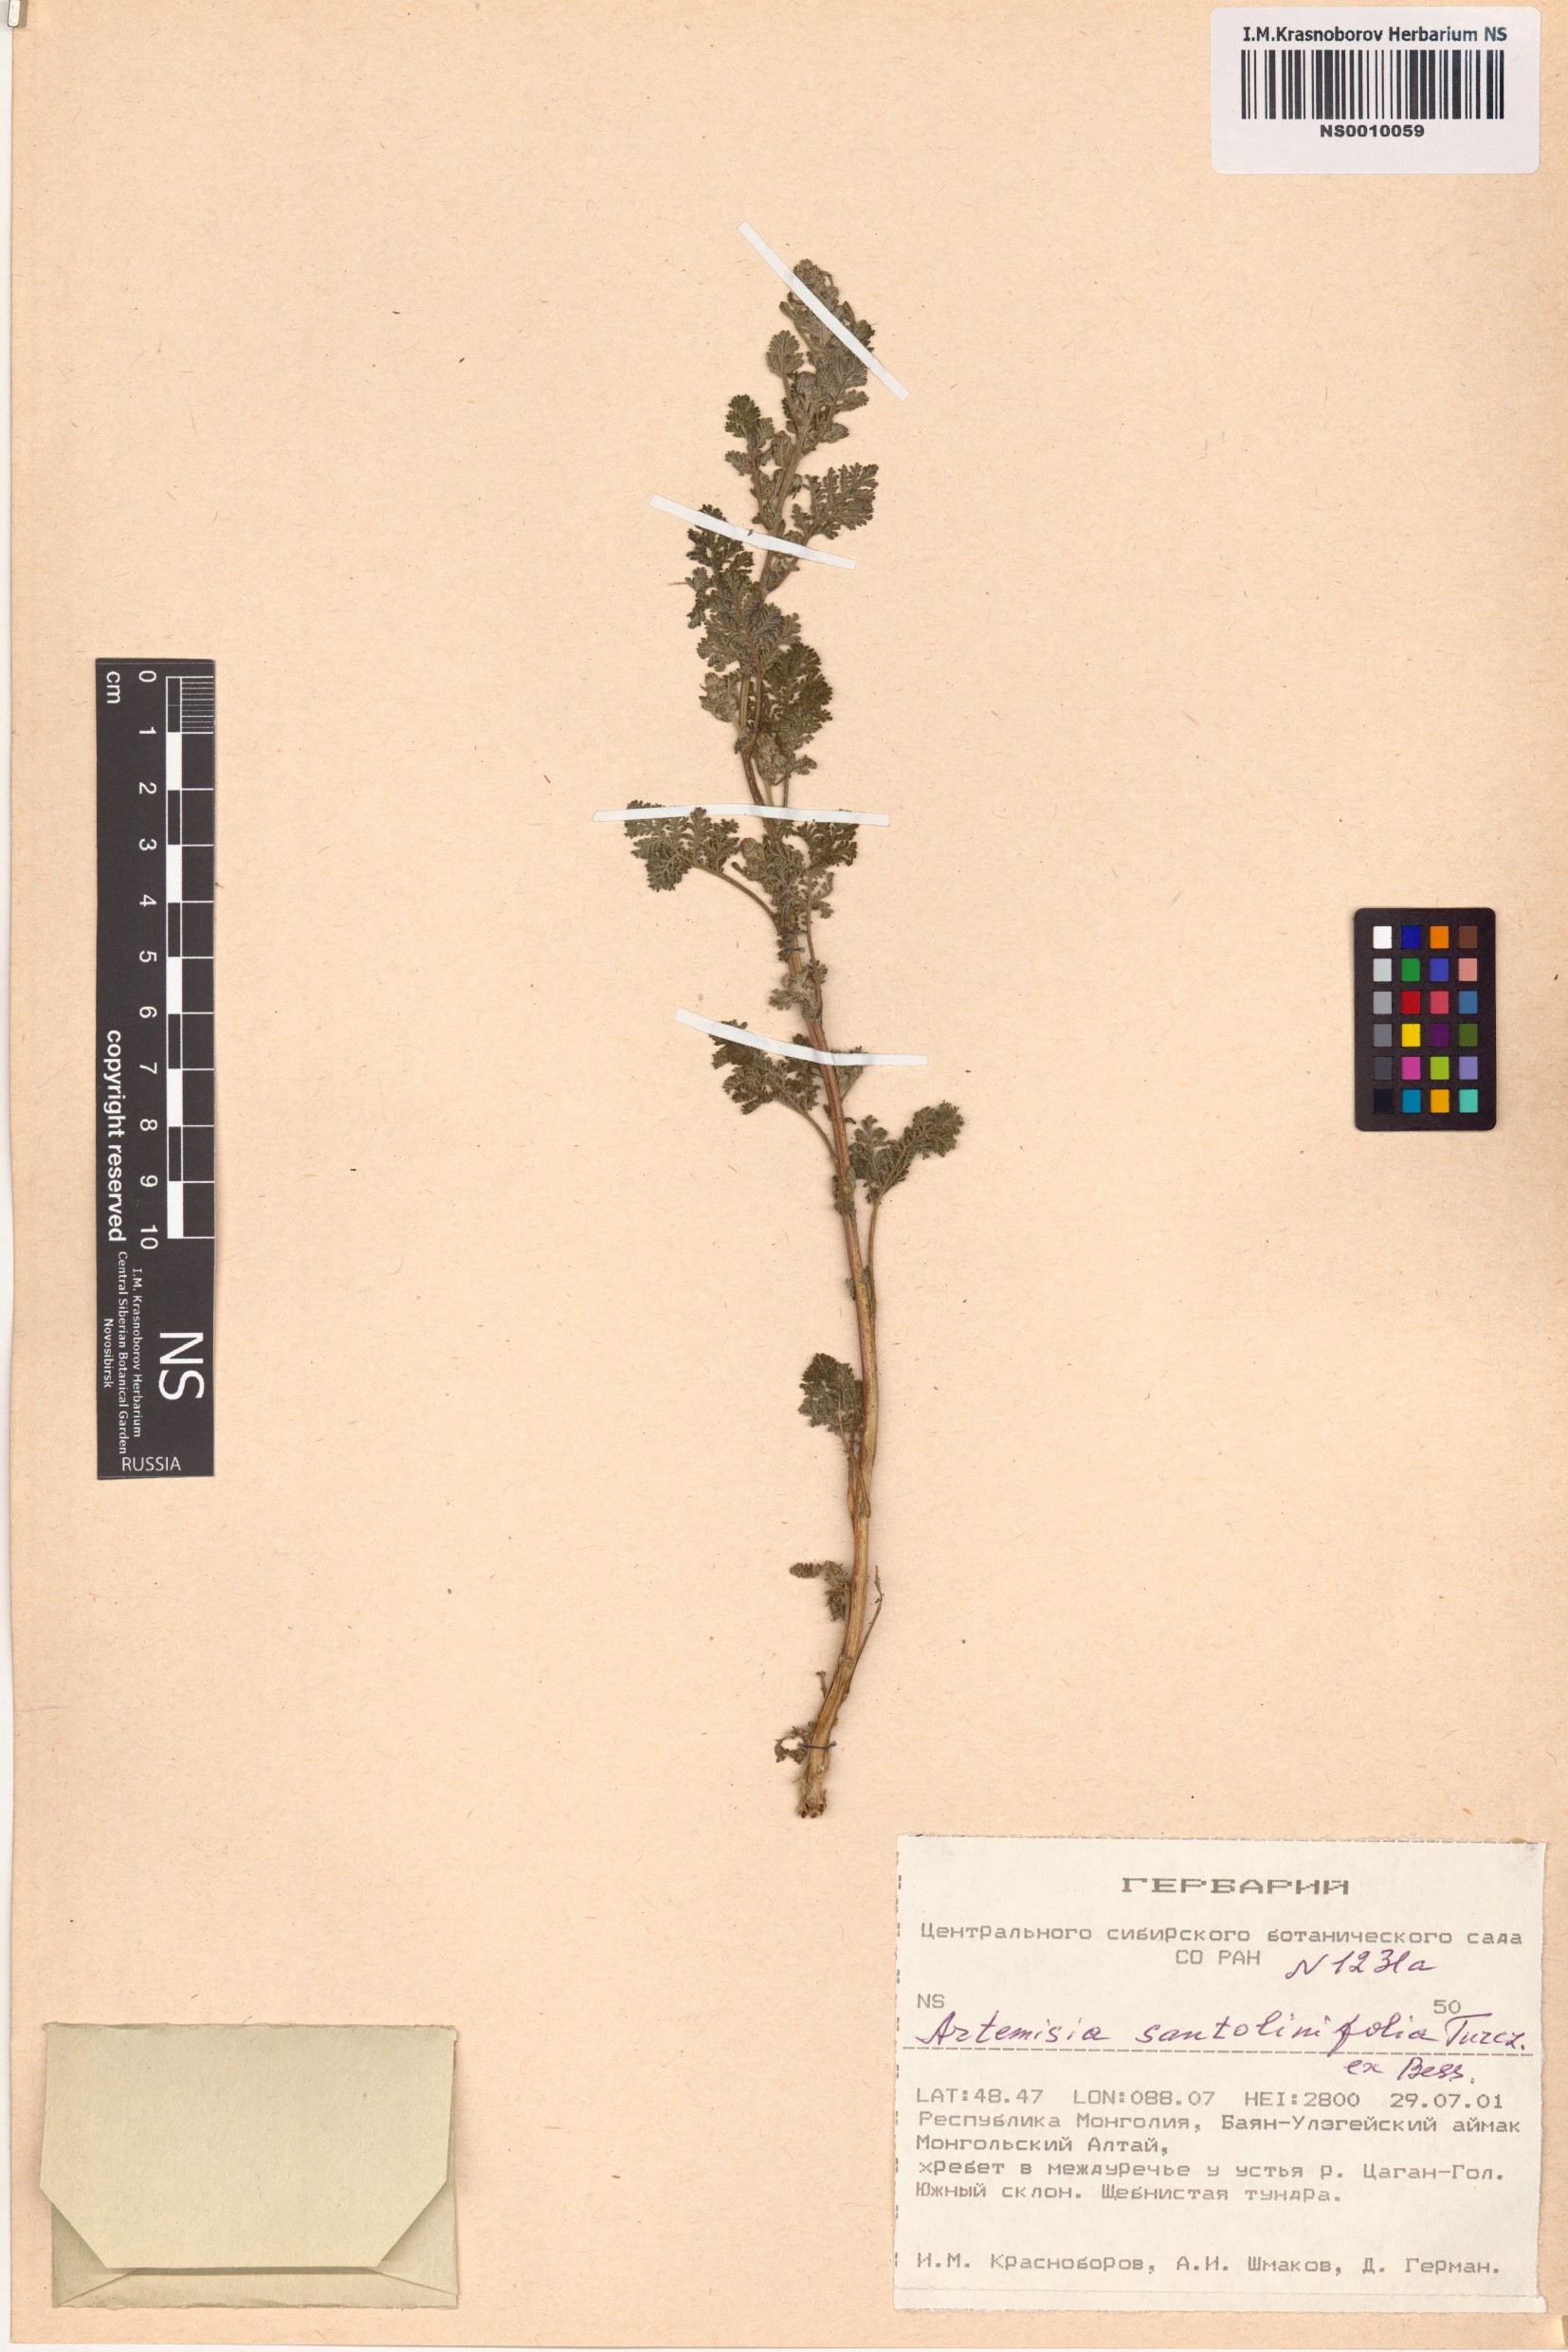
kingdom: Plantae
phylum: Tracheophyta
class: Magnoliopsida
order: Asterales
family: Asteraceae
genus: Artemisia
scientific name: Artemisia stechmanniana
